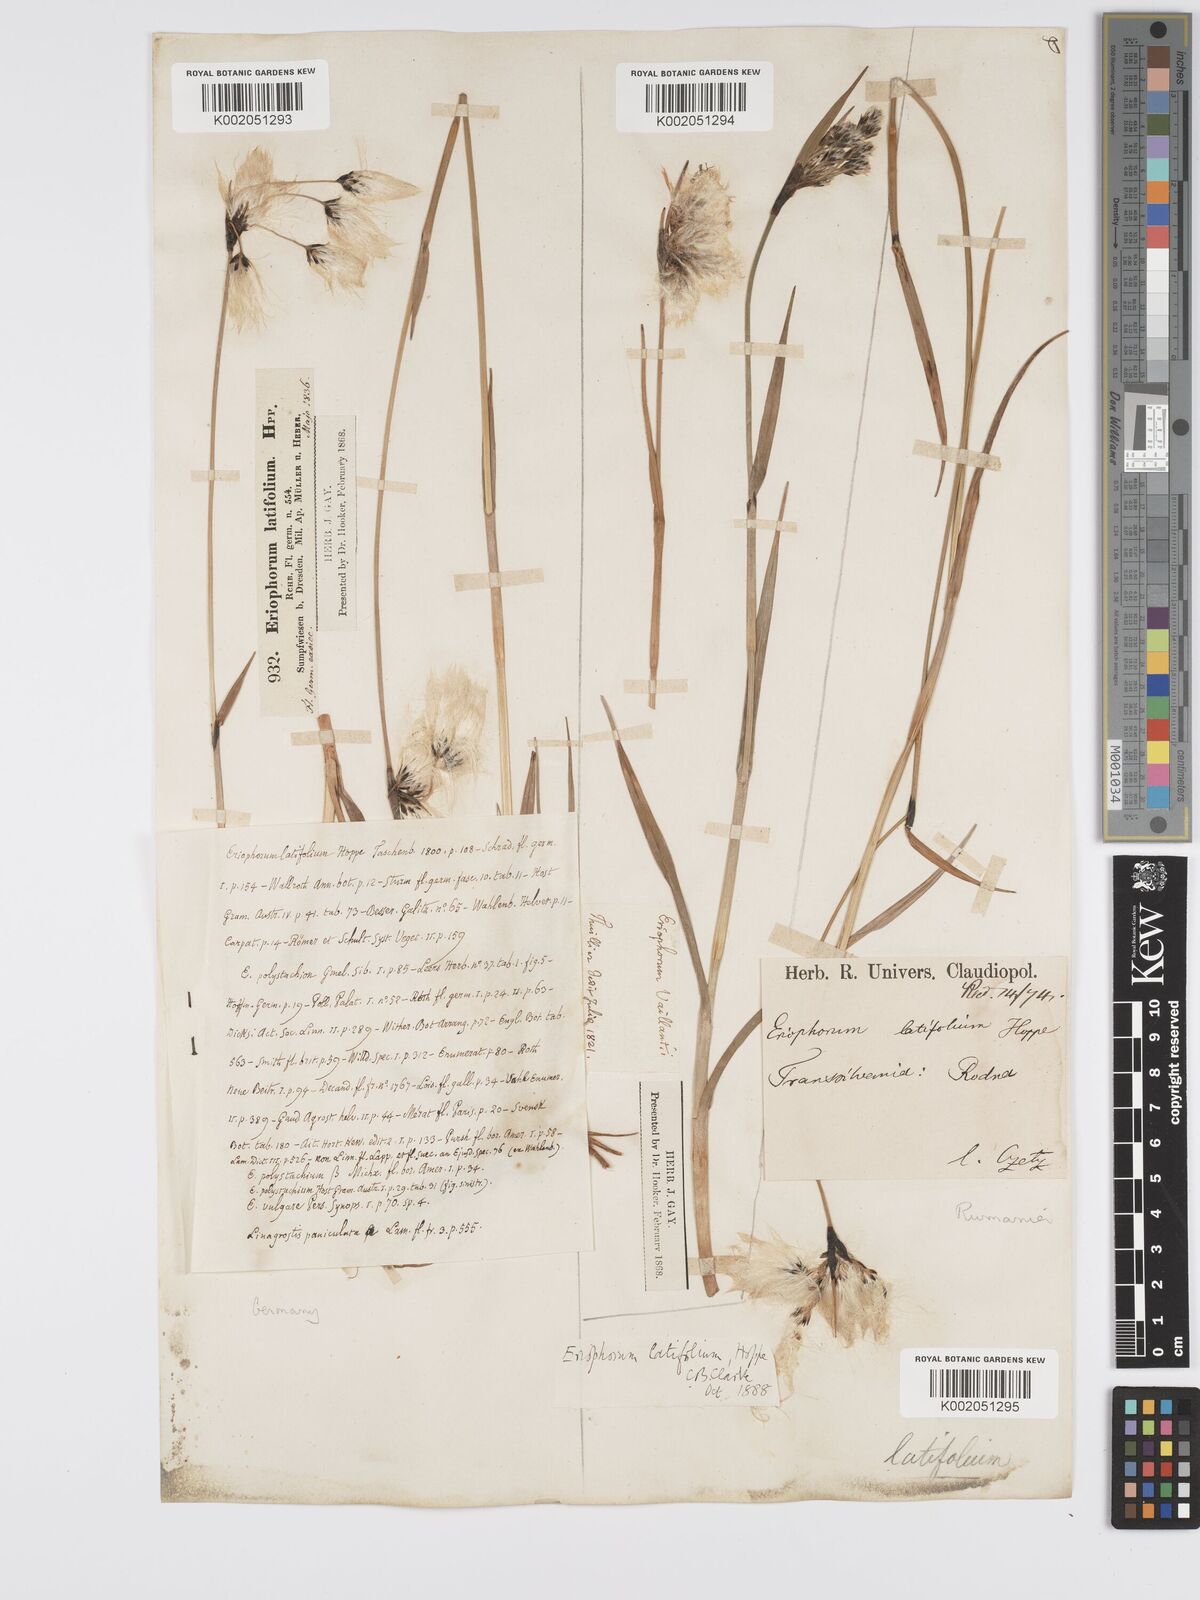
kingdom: Plantae
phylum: Tracheophyta
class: Liliopsida
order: Poales
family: Cyperaceae
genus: Eriophorum
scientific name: Eriophorum latifolium
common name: Broad-leaved cottongrass
